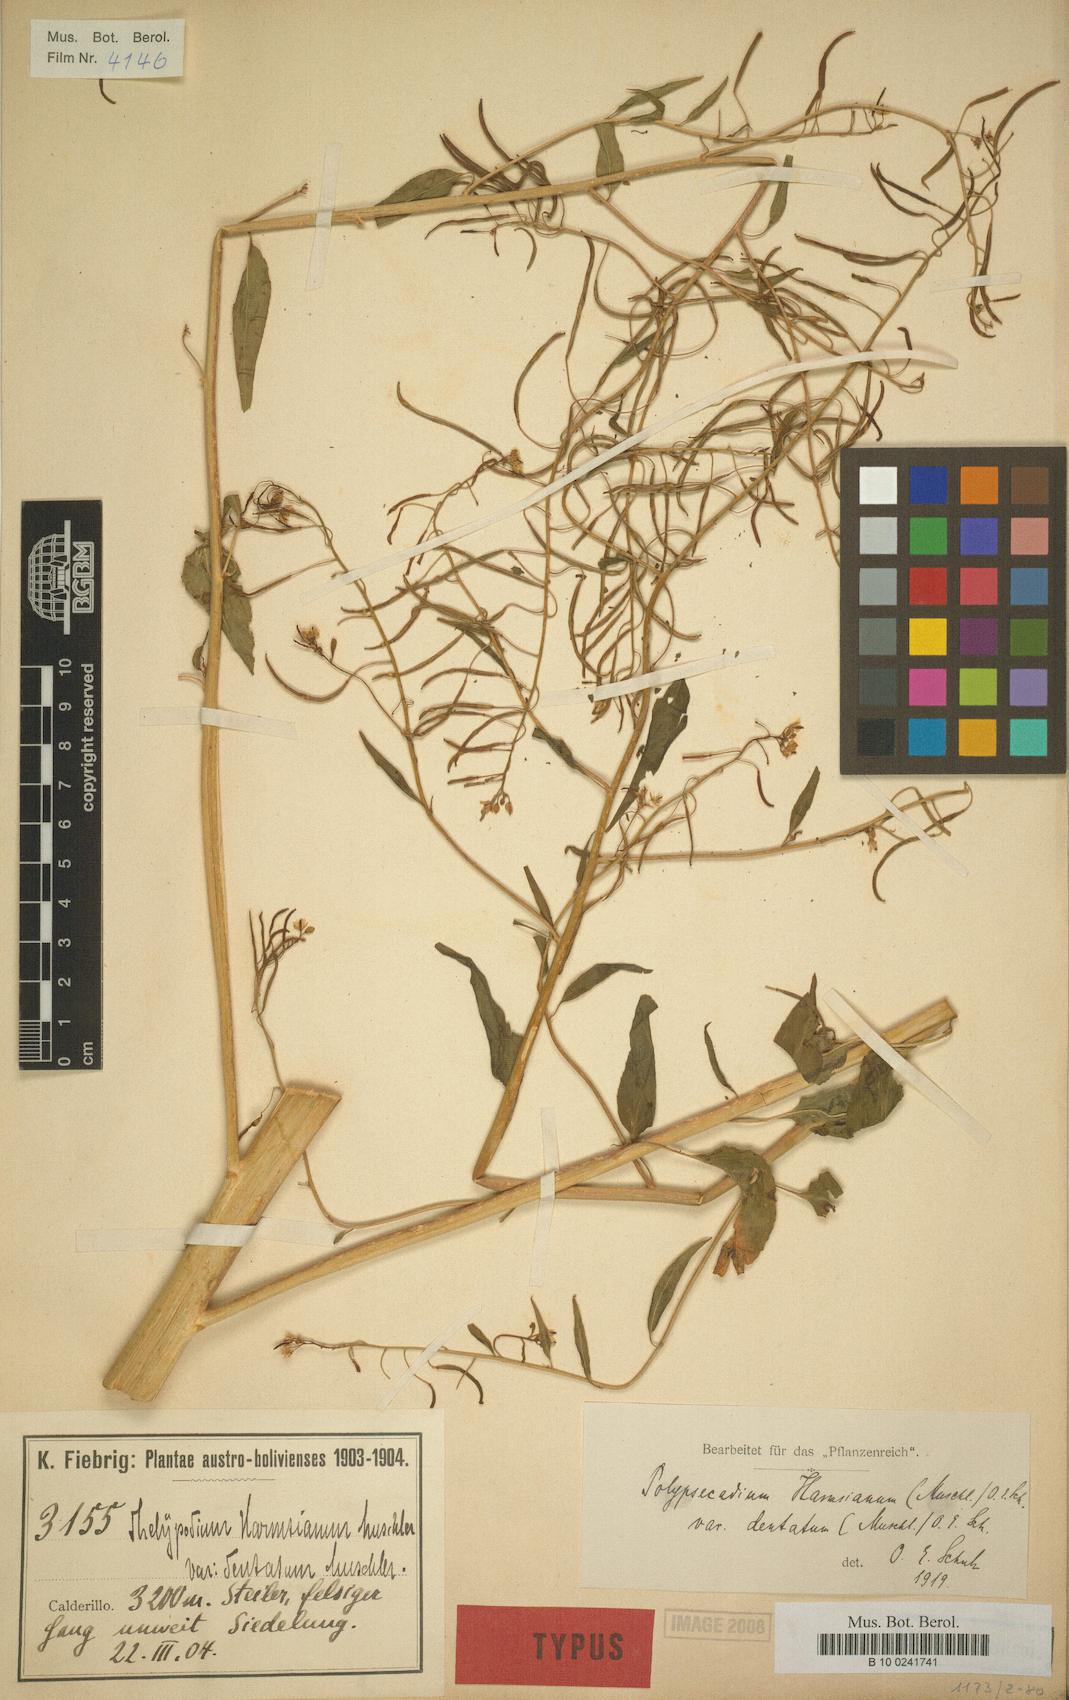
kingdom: Plantae
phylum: Tracheophyta
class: Magnoliopsida
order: Brassicales
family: Brassicaceae
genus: Polypsecadium
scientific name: Polypsecadium harmsianum
